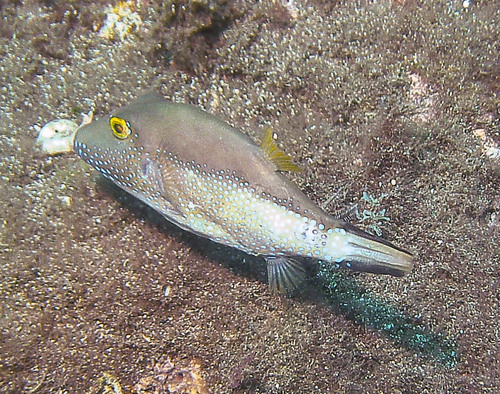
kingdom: Animalia
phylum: Chordata
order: Tetraodontiformes
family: Tetraodontidae
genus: Canthigaster
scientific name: Canthigaster capistrata
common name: Macaronesian sharpnose-puffer
